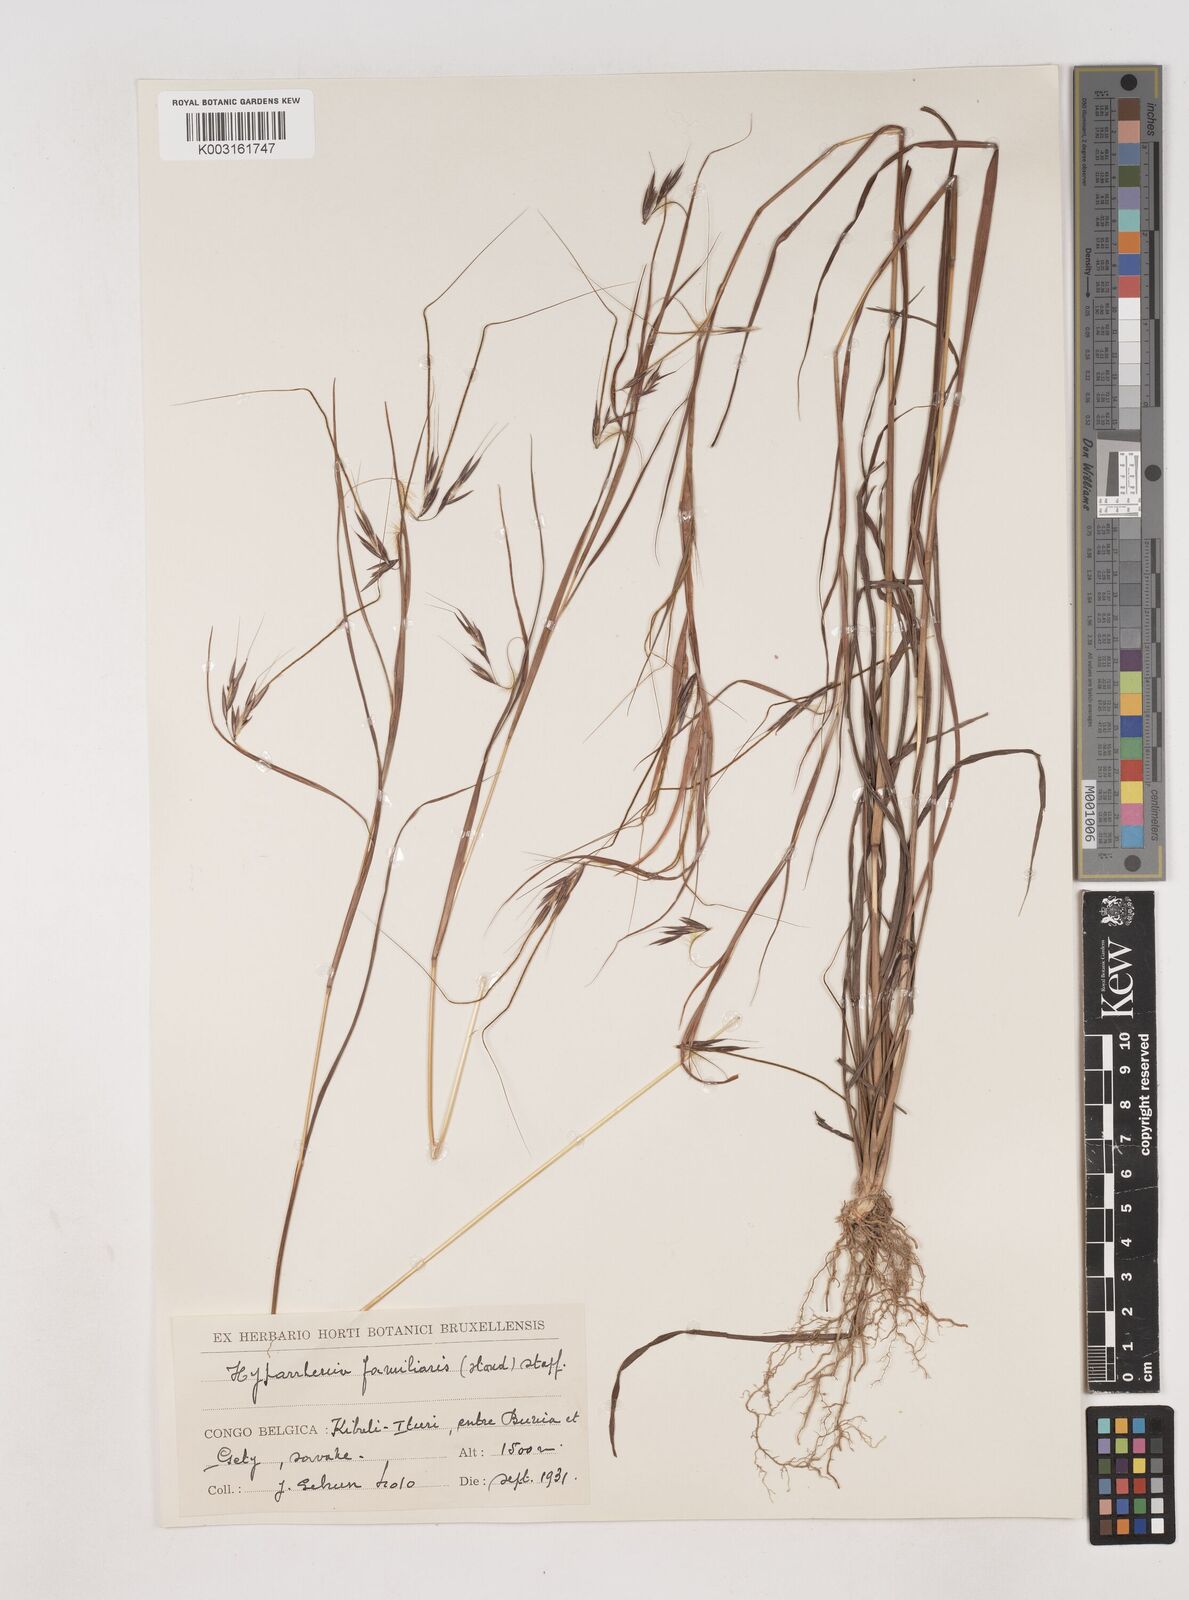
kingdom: Plantae
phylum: Tracheophyta
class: Liliopsida
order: Poales
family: Poaceae
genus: Hyparrhenia
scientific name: Hyparrhenia familiaris
